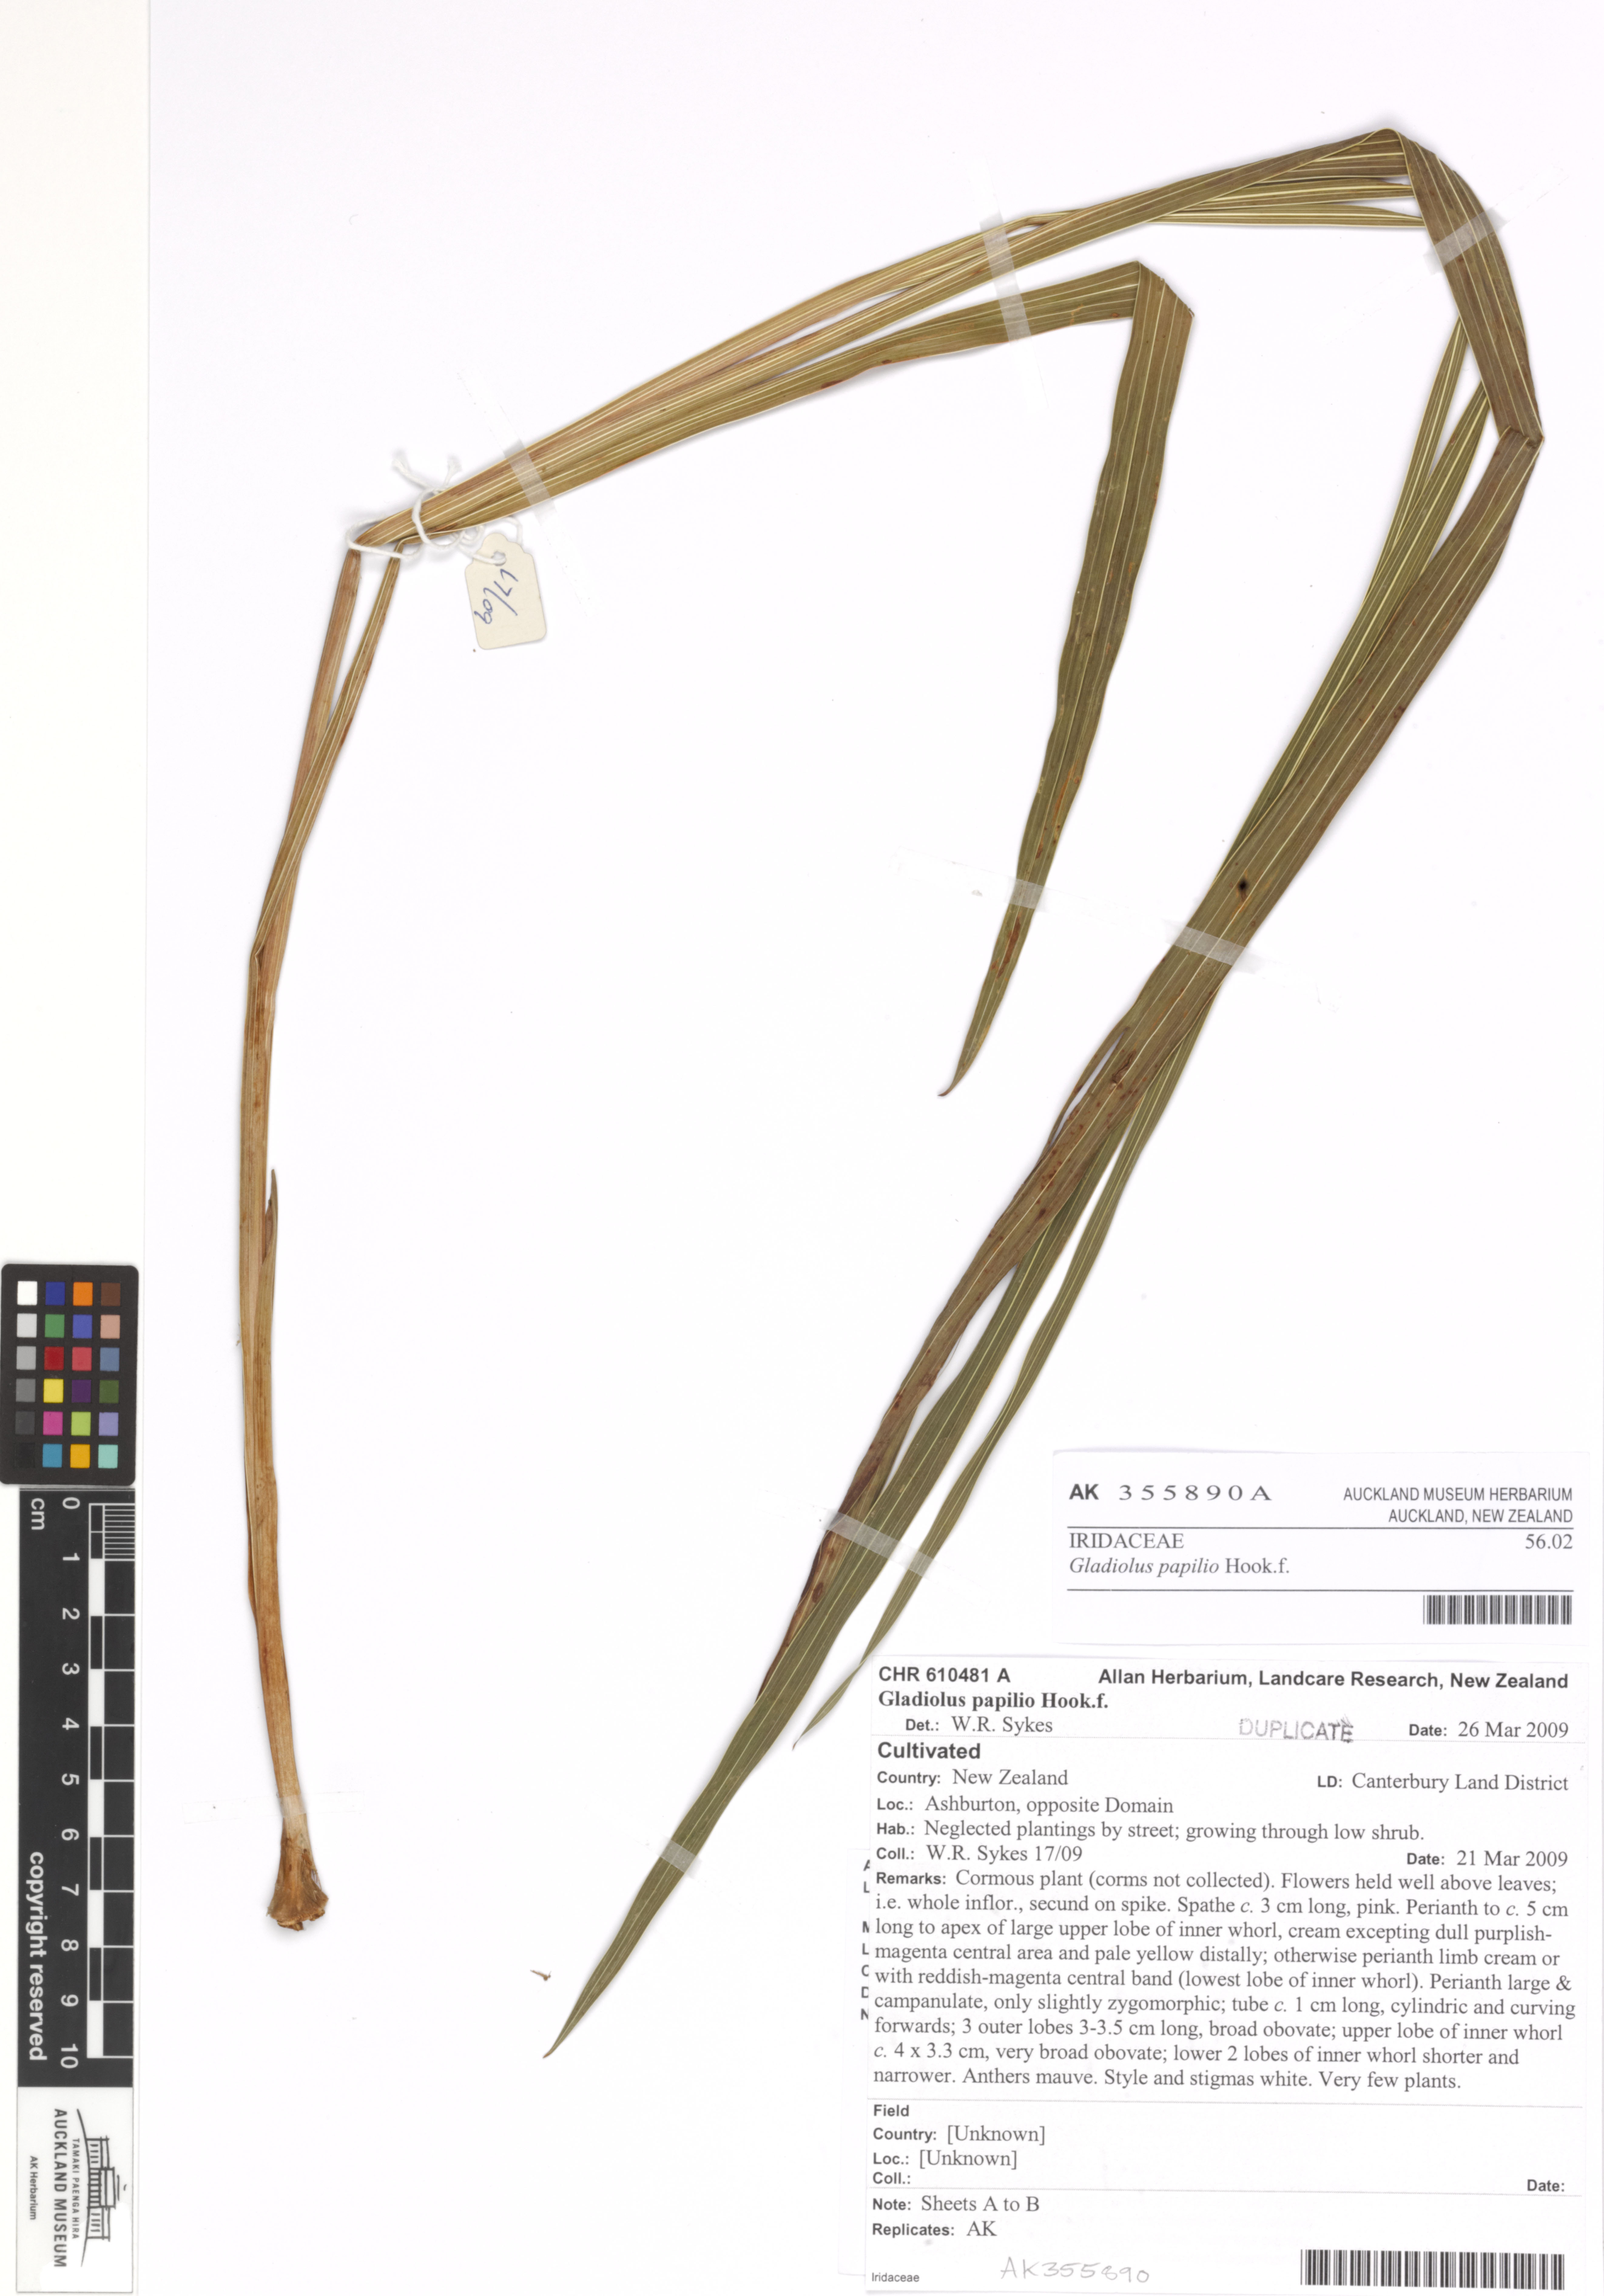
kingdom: Plantae
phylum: Tracheophyta
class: Liliopsida
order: Asparagales
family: Iridaceae
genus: Gladiolus
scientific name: Gladiolus papilio
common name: Goldblotch gladiolus
